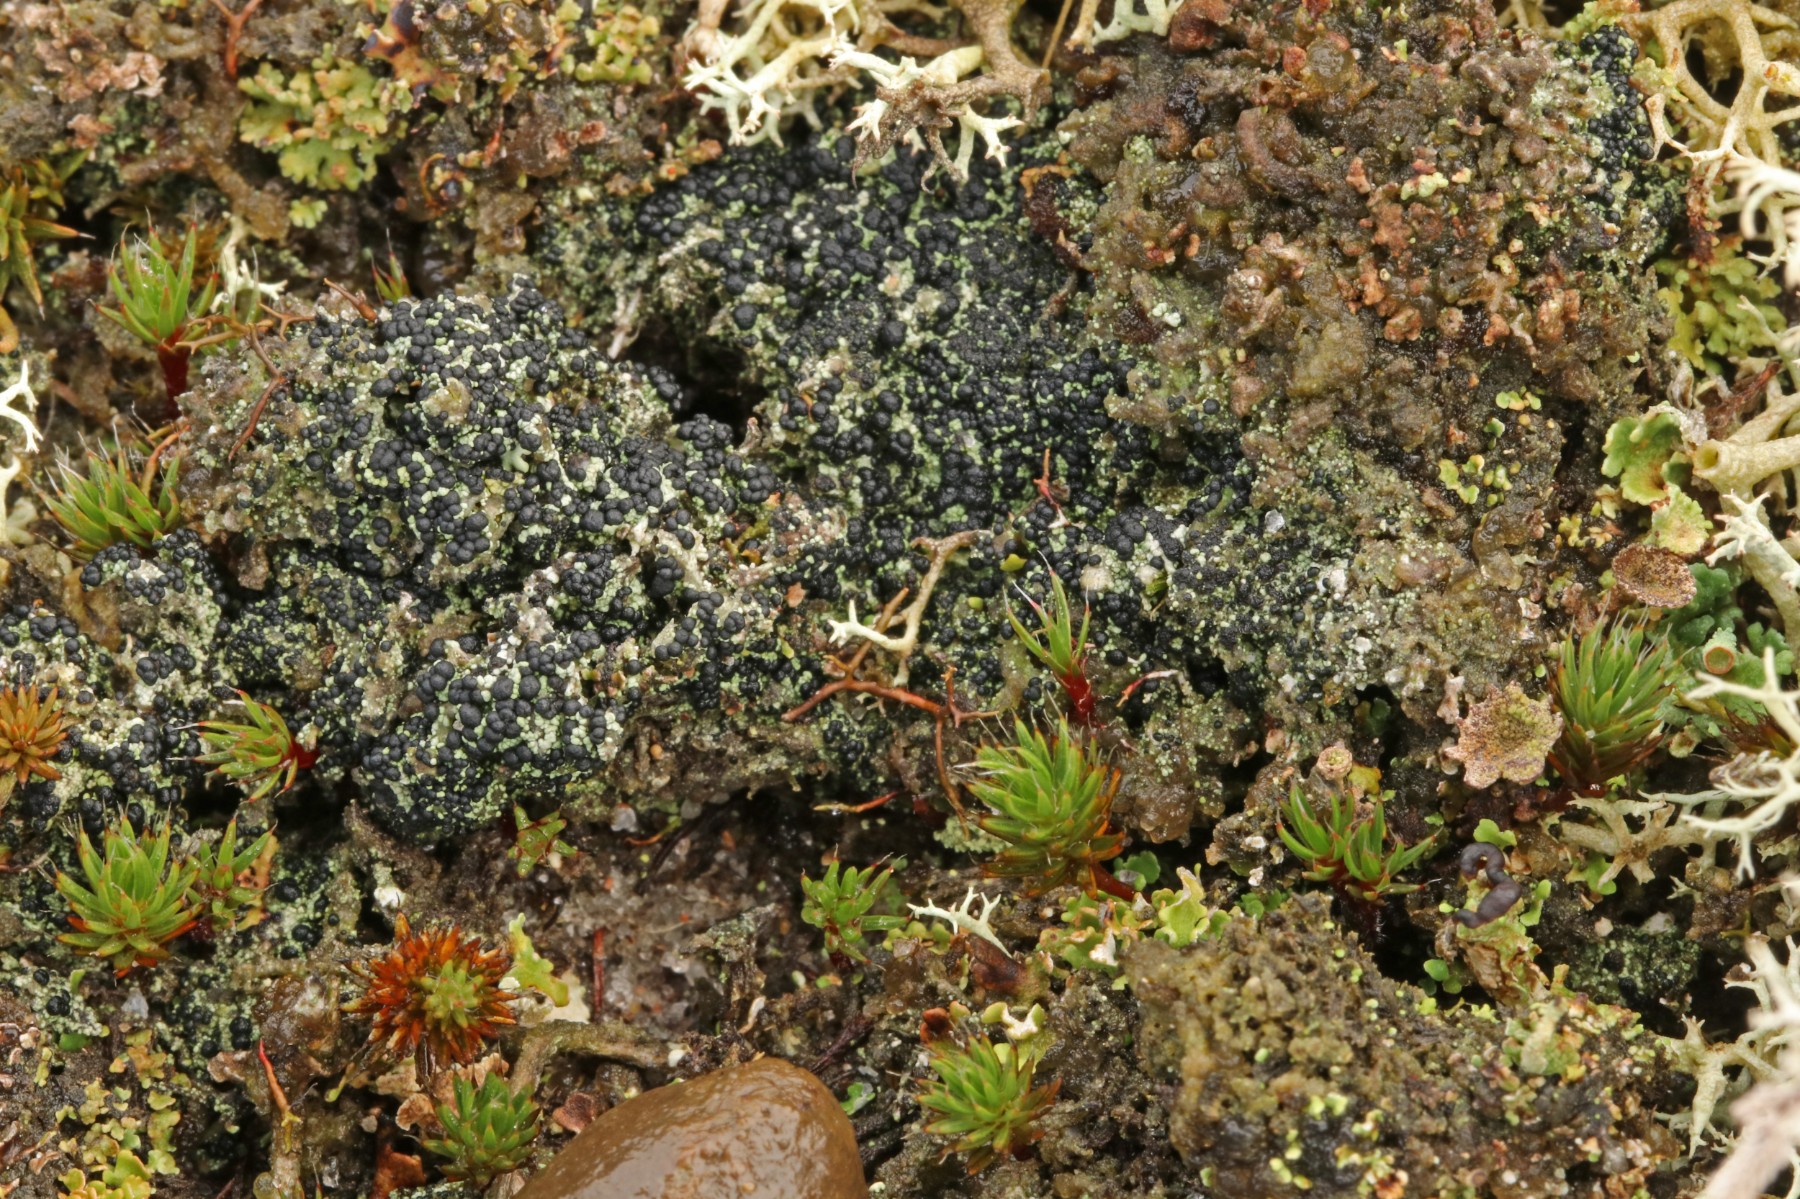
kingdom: Fungi
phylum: Ascomycota
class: Lecanoromycetes
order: Lecanorales
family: Byssolomataceae
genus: Micarea
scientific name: Micarea lignaria
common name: tørve-knaplav
